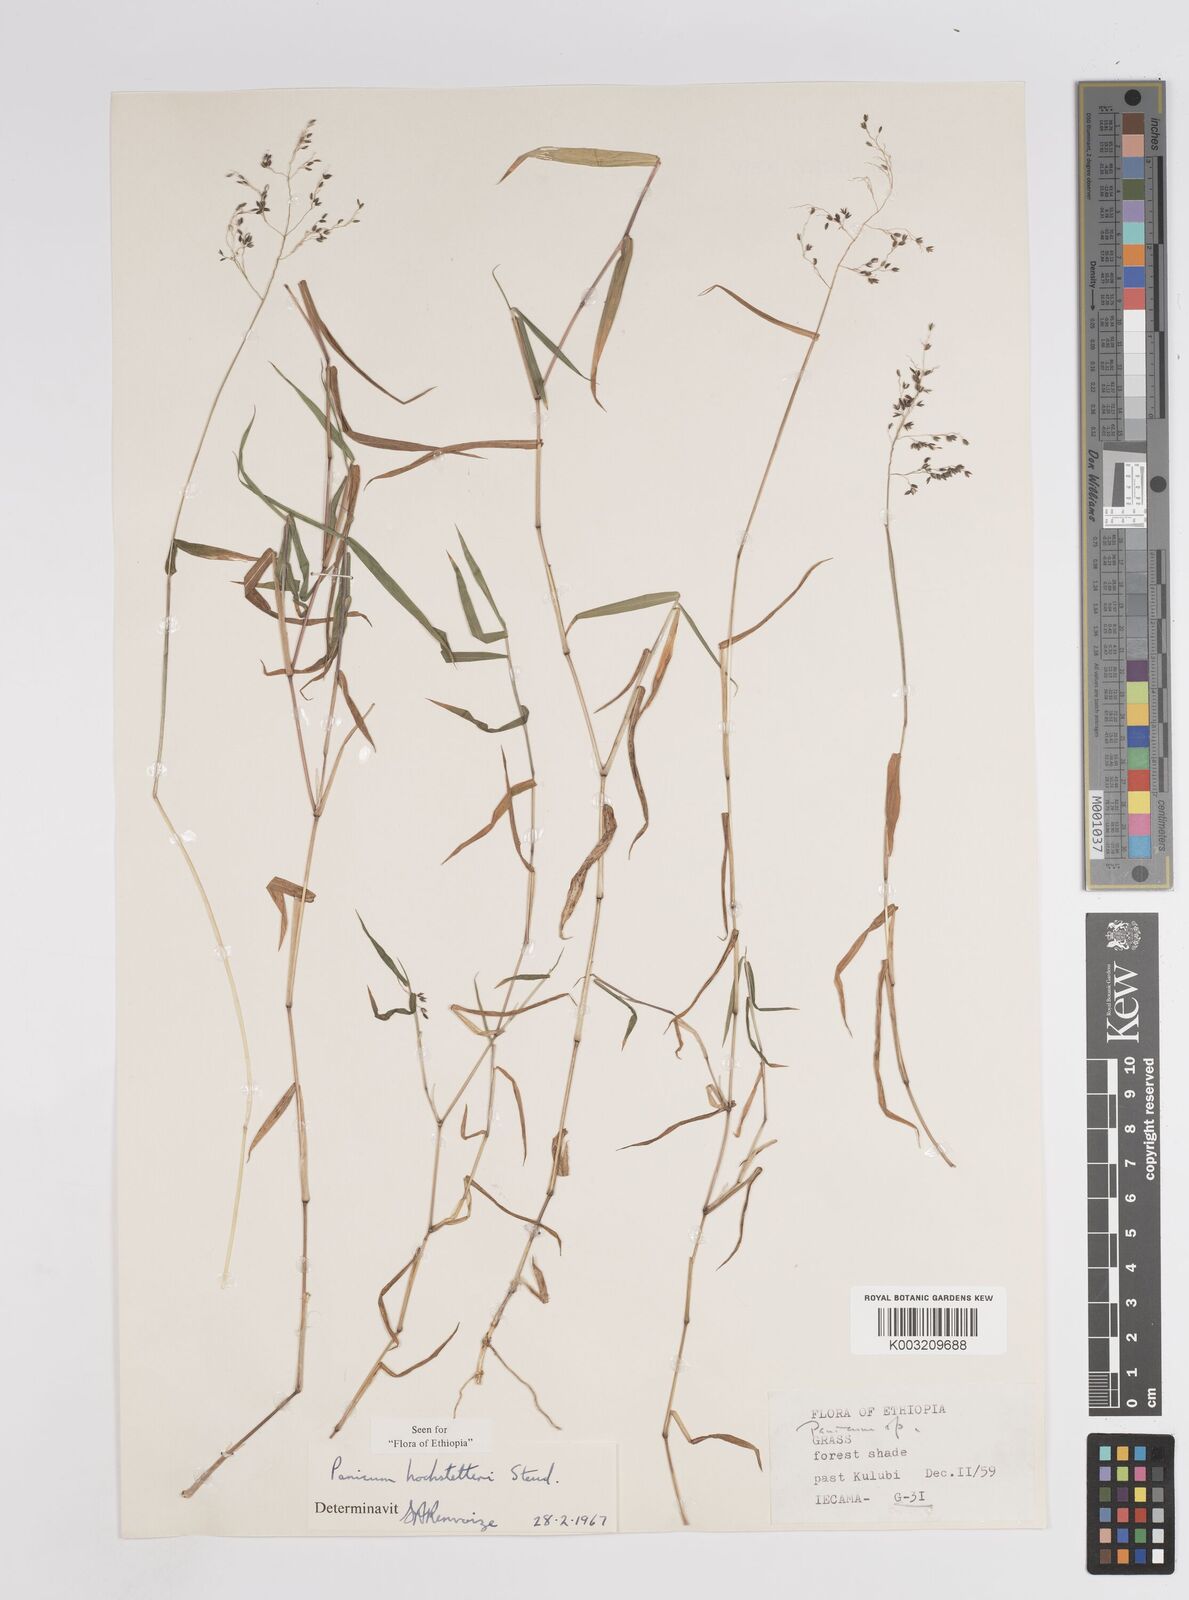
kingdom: Plantae
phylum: Tracheophyta
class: Liliopsida
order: Poales
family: Poaceae
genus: Panicum
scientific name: Panicum hochstetteri
